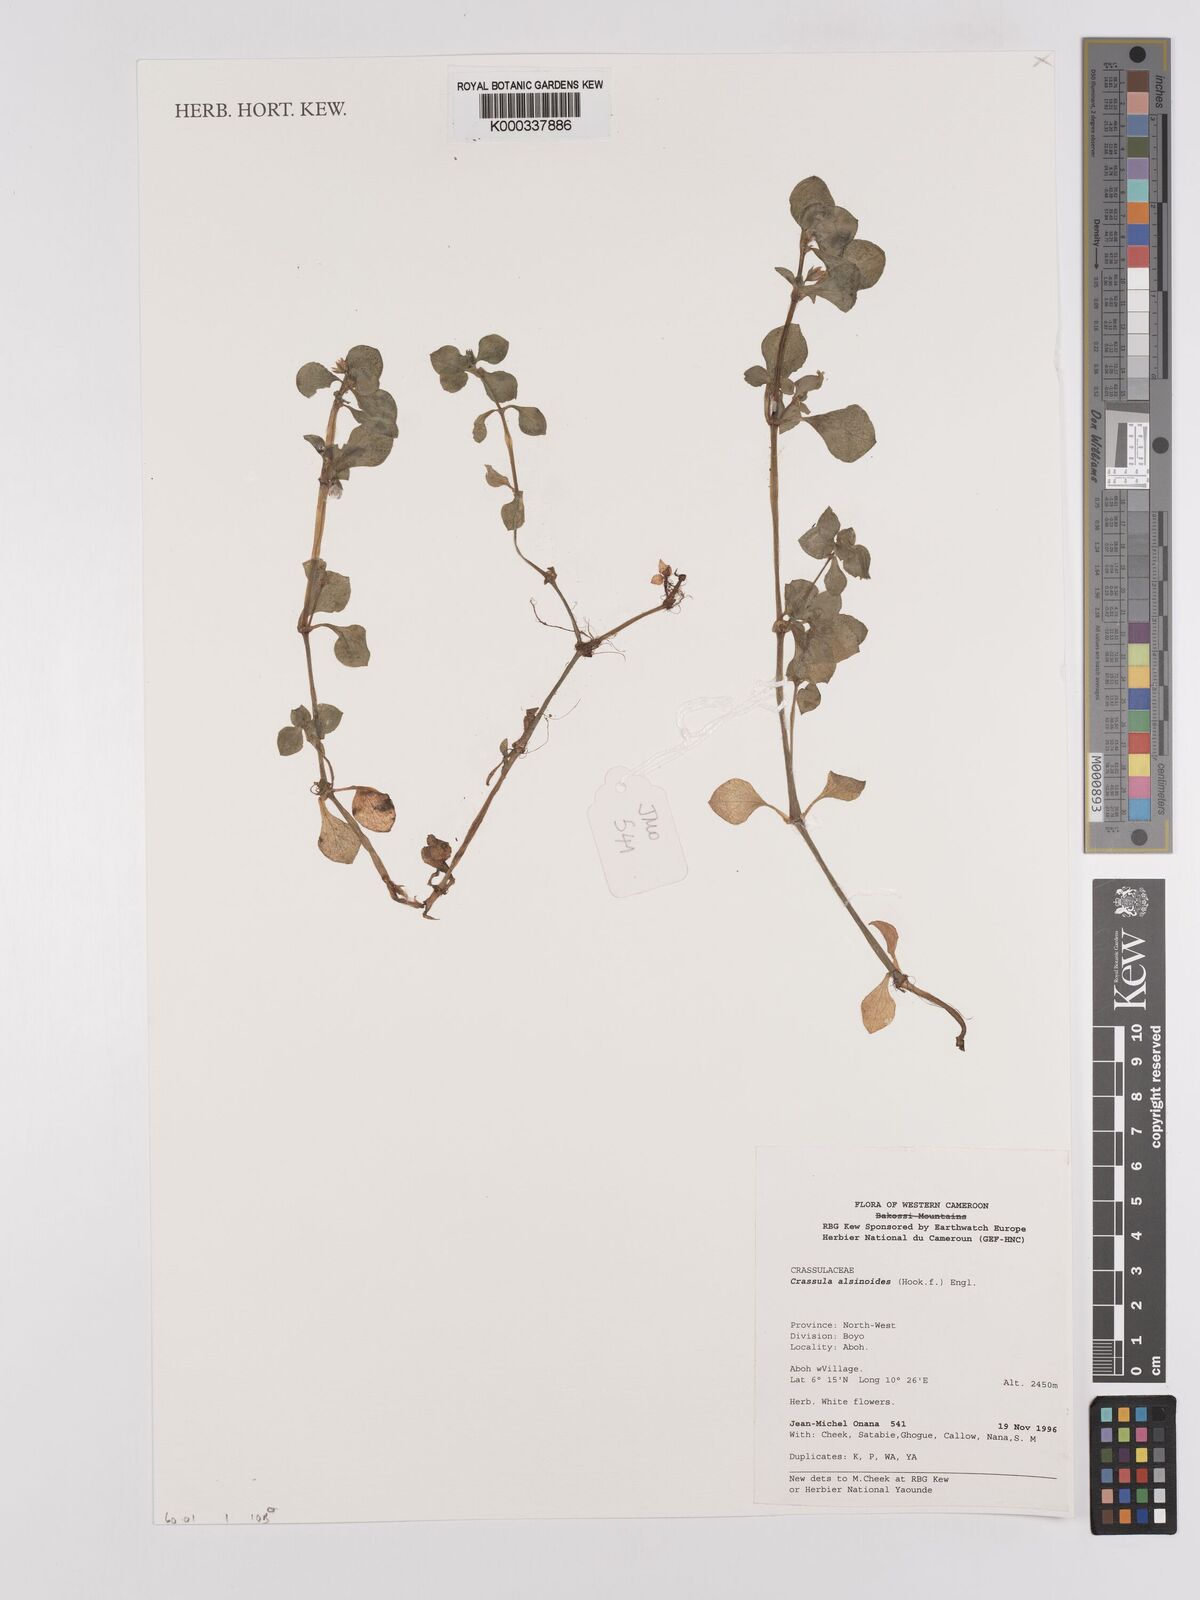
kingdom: Plantae
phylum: Tracheophyta
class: Magnoliopsida
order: Saxifragales
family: Crassulaceae
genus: Crassula
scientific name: Crassula alsinoides
